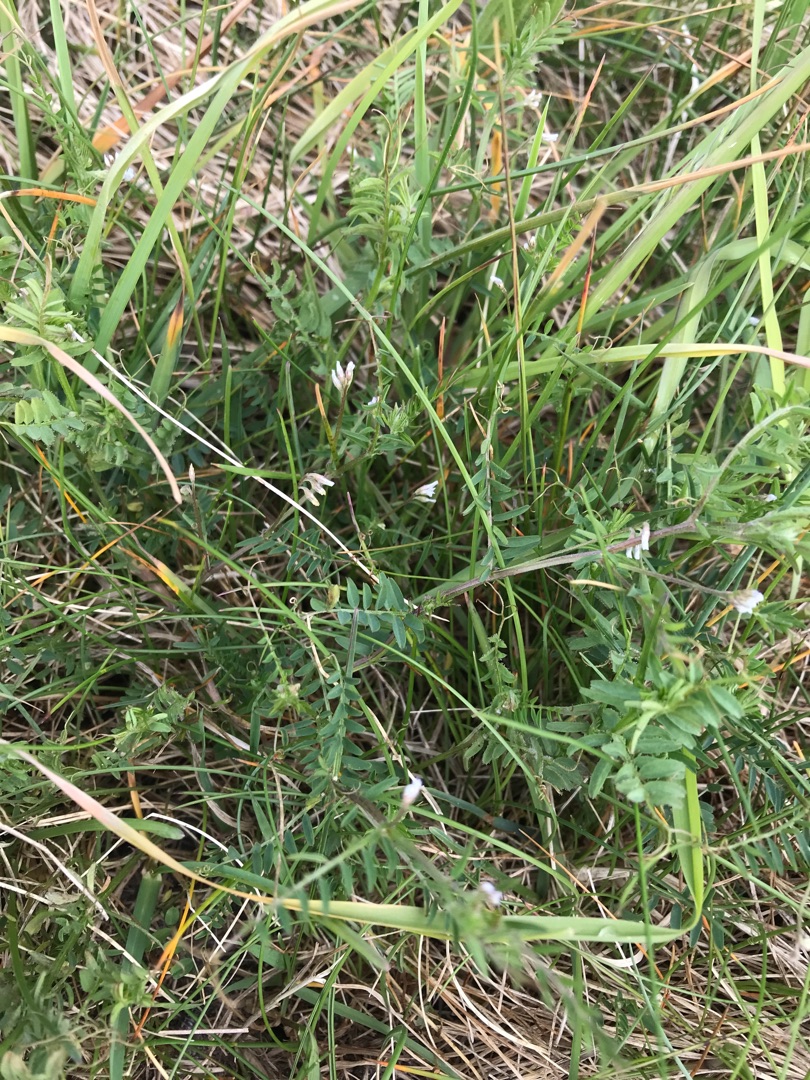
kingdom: Plantae
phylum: Tracheophyta
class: Magnoliopsida
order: Fabales
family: Fabaceae
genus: Vicia
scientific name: Vicia hirsuta
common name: Tofrøet vikke
